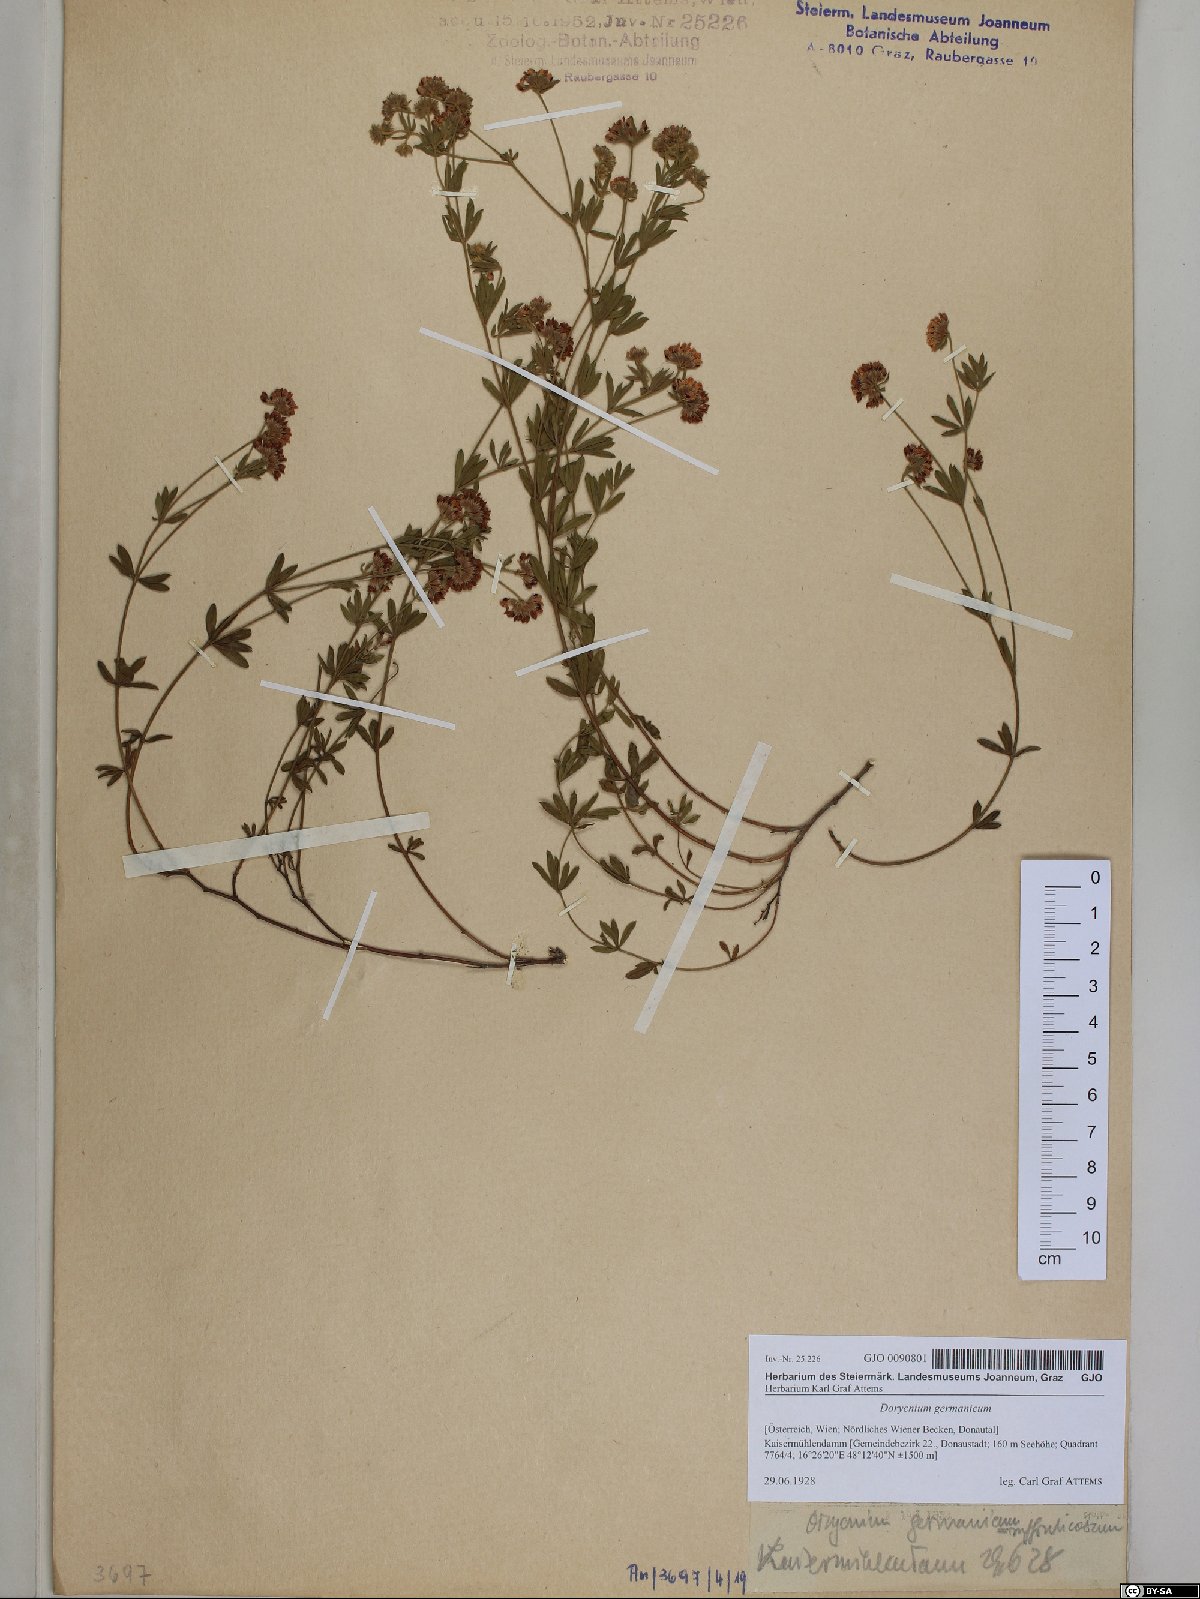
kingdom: Plantae
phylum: Tracheophyta
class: Magnoliopsida
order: Fabales
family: Fabaceae
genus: Lotus
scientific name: Lotus germanicus
